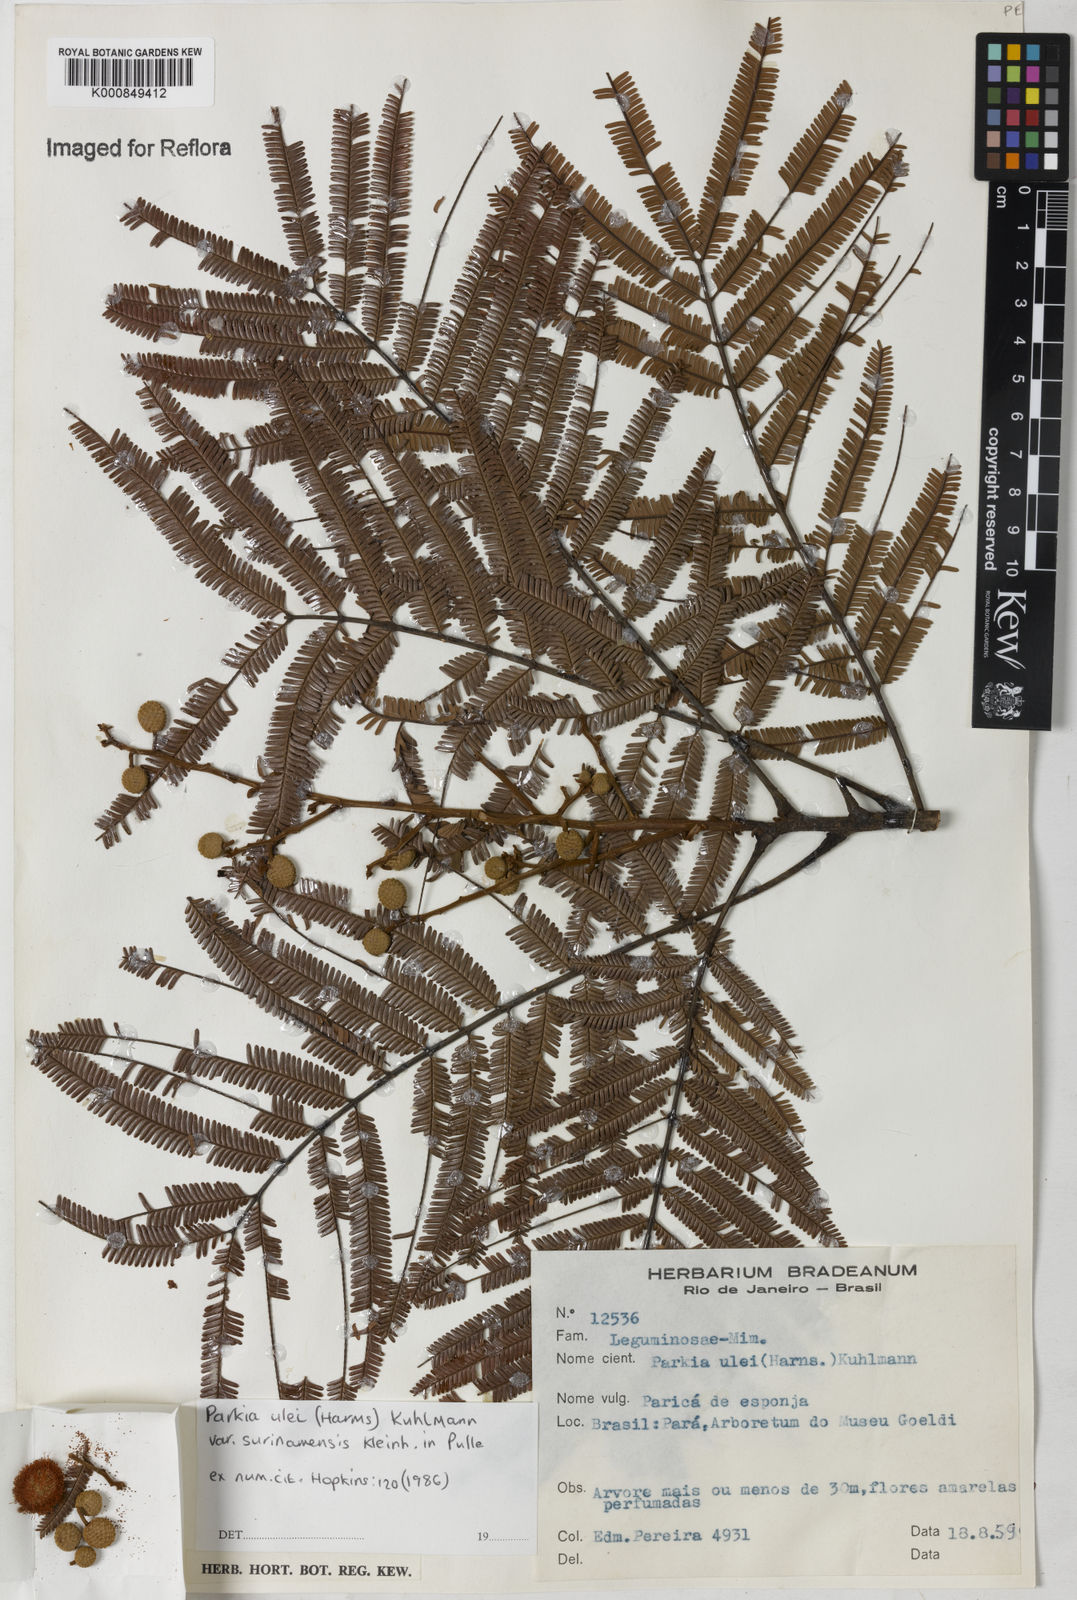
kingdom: Plantae
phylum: Tracheophyta
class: Magnoliopsida
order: Fabales
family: Fabaceae
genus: Parkia
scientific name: Parkia ulei
